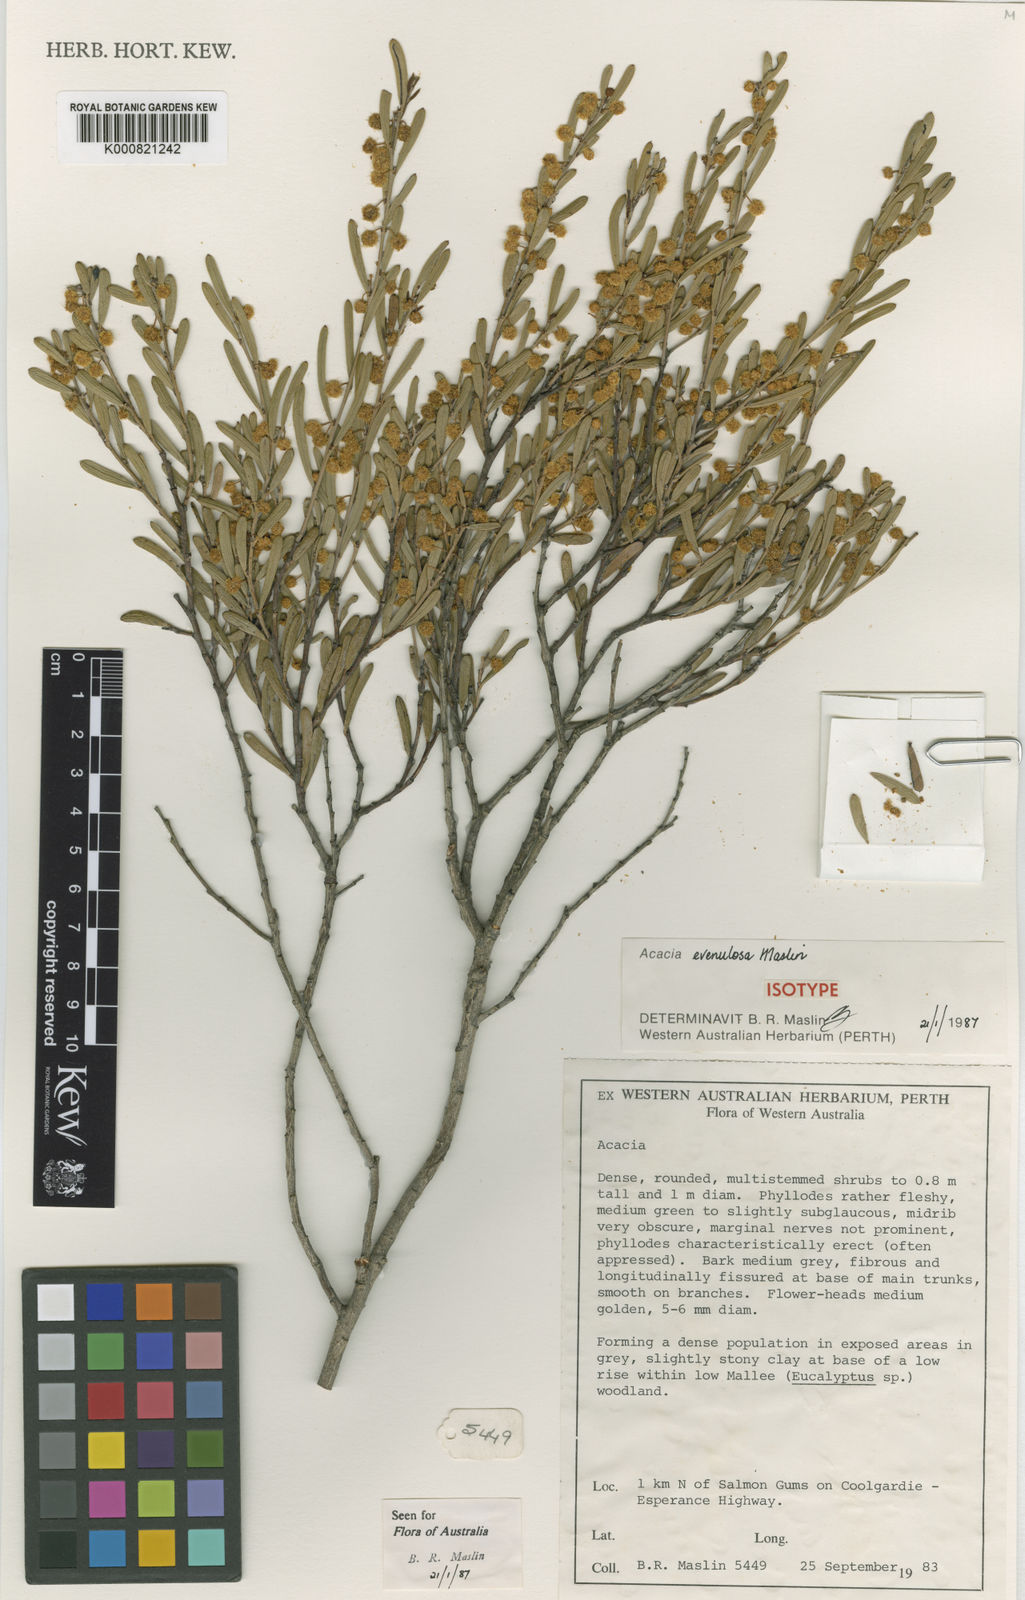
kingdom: Plantae
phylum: Tracheophyta
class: Magnoliopsida
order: Fabales
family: Fabaceae
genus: Acacia
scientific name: Acacia evenulosa
